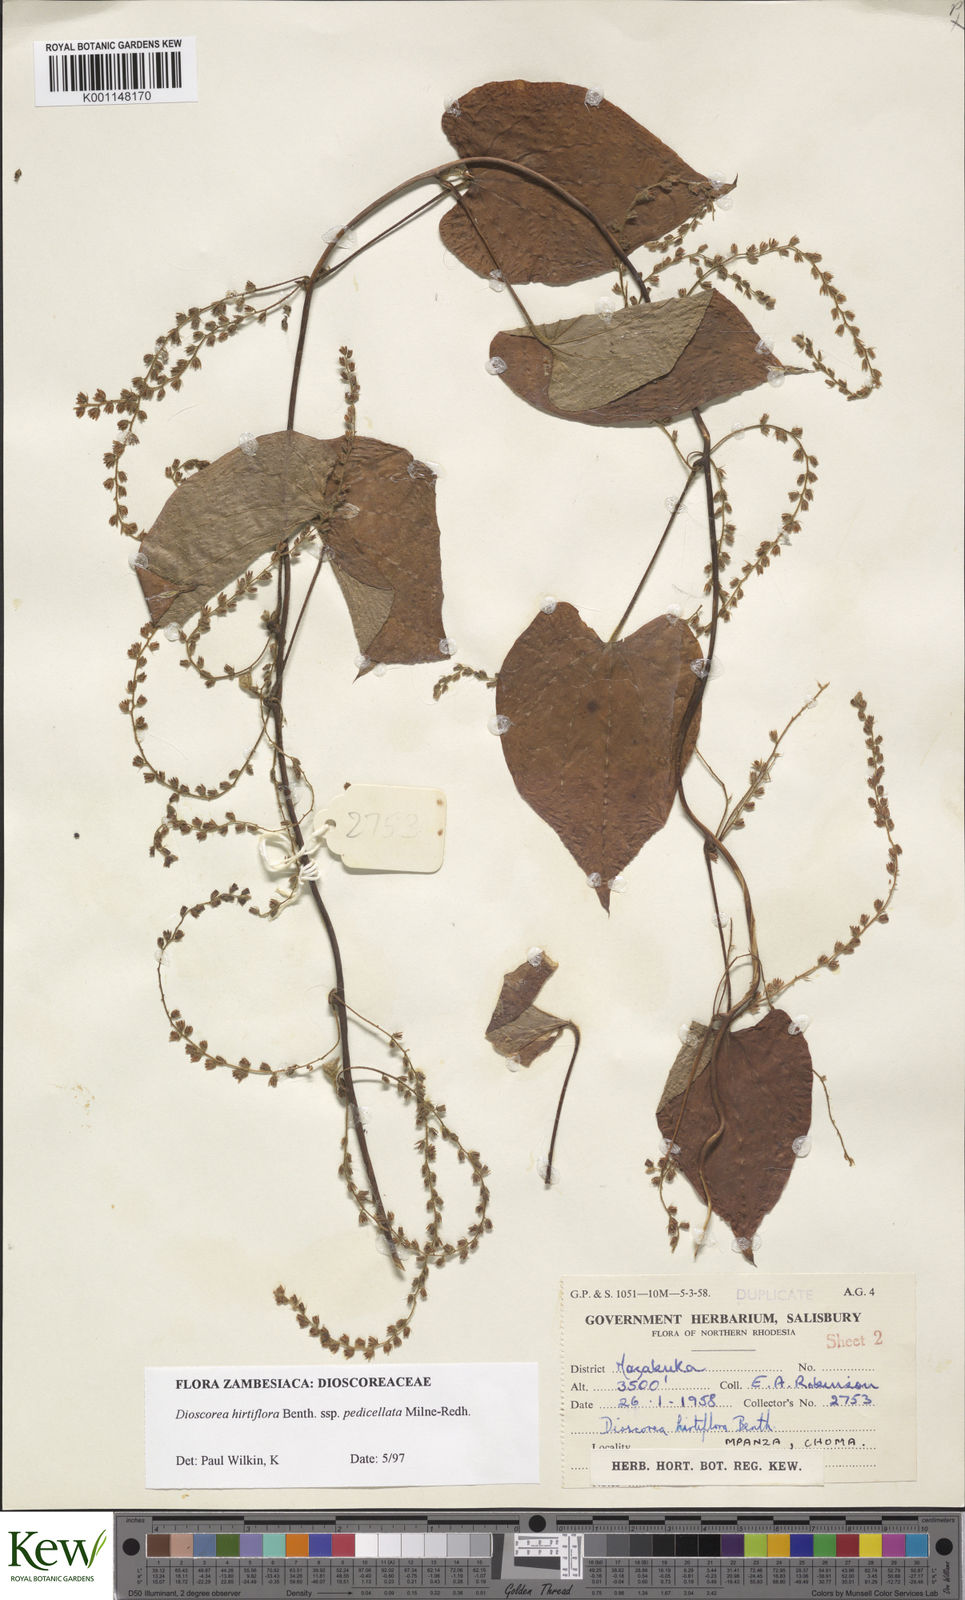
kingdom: Plantae
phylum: Tracheophyta
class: Liliopsida
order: Dioscoreales
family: Dioscoreaceae
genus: Dioscorea
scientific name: Dioscorea hirtiflora
